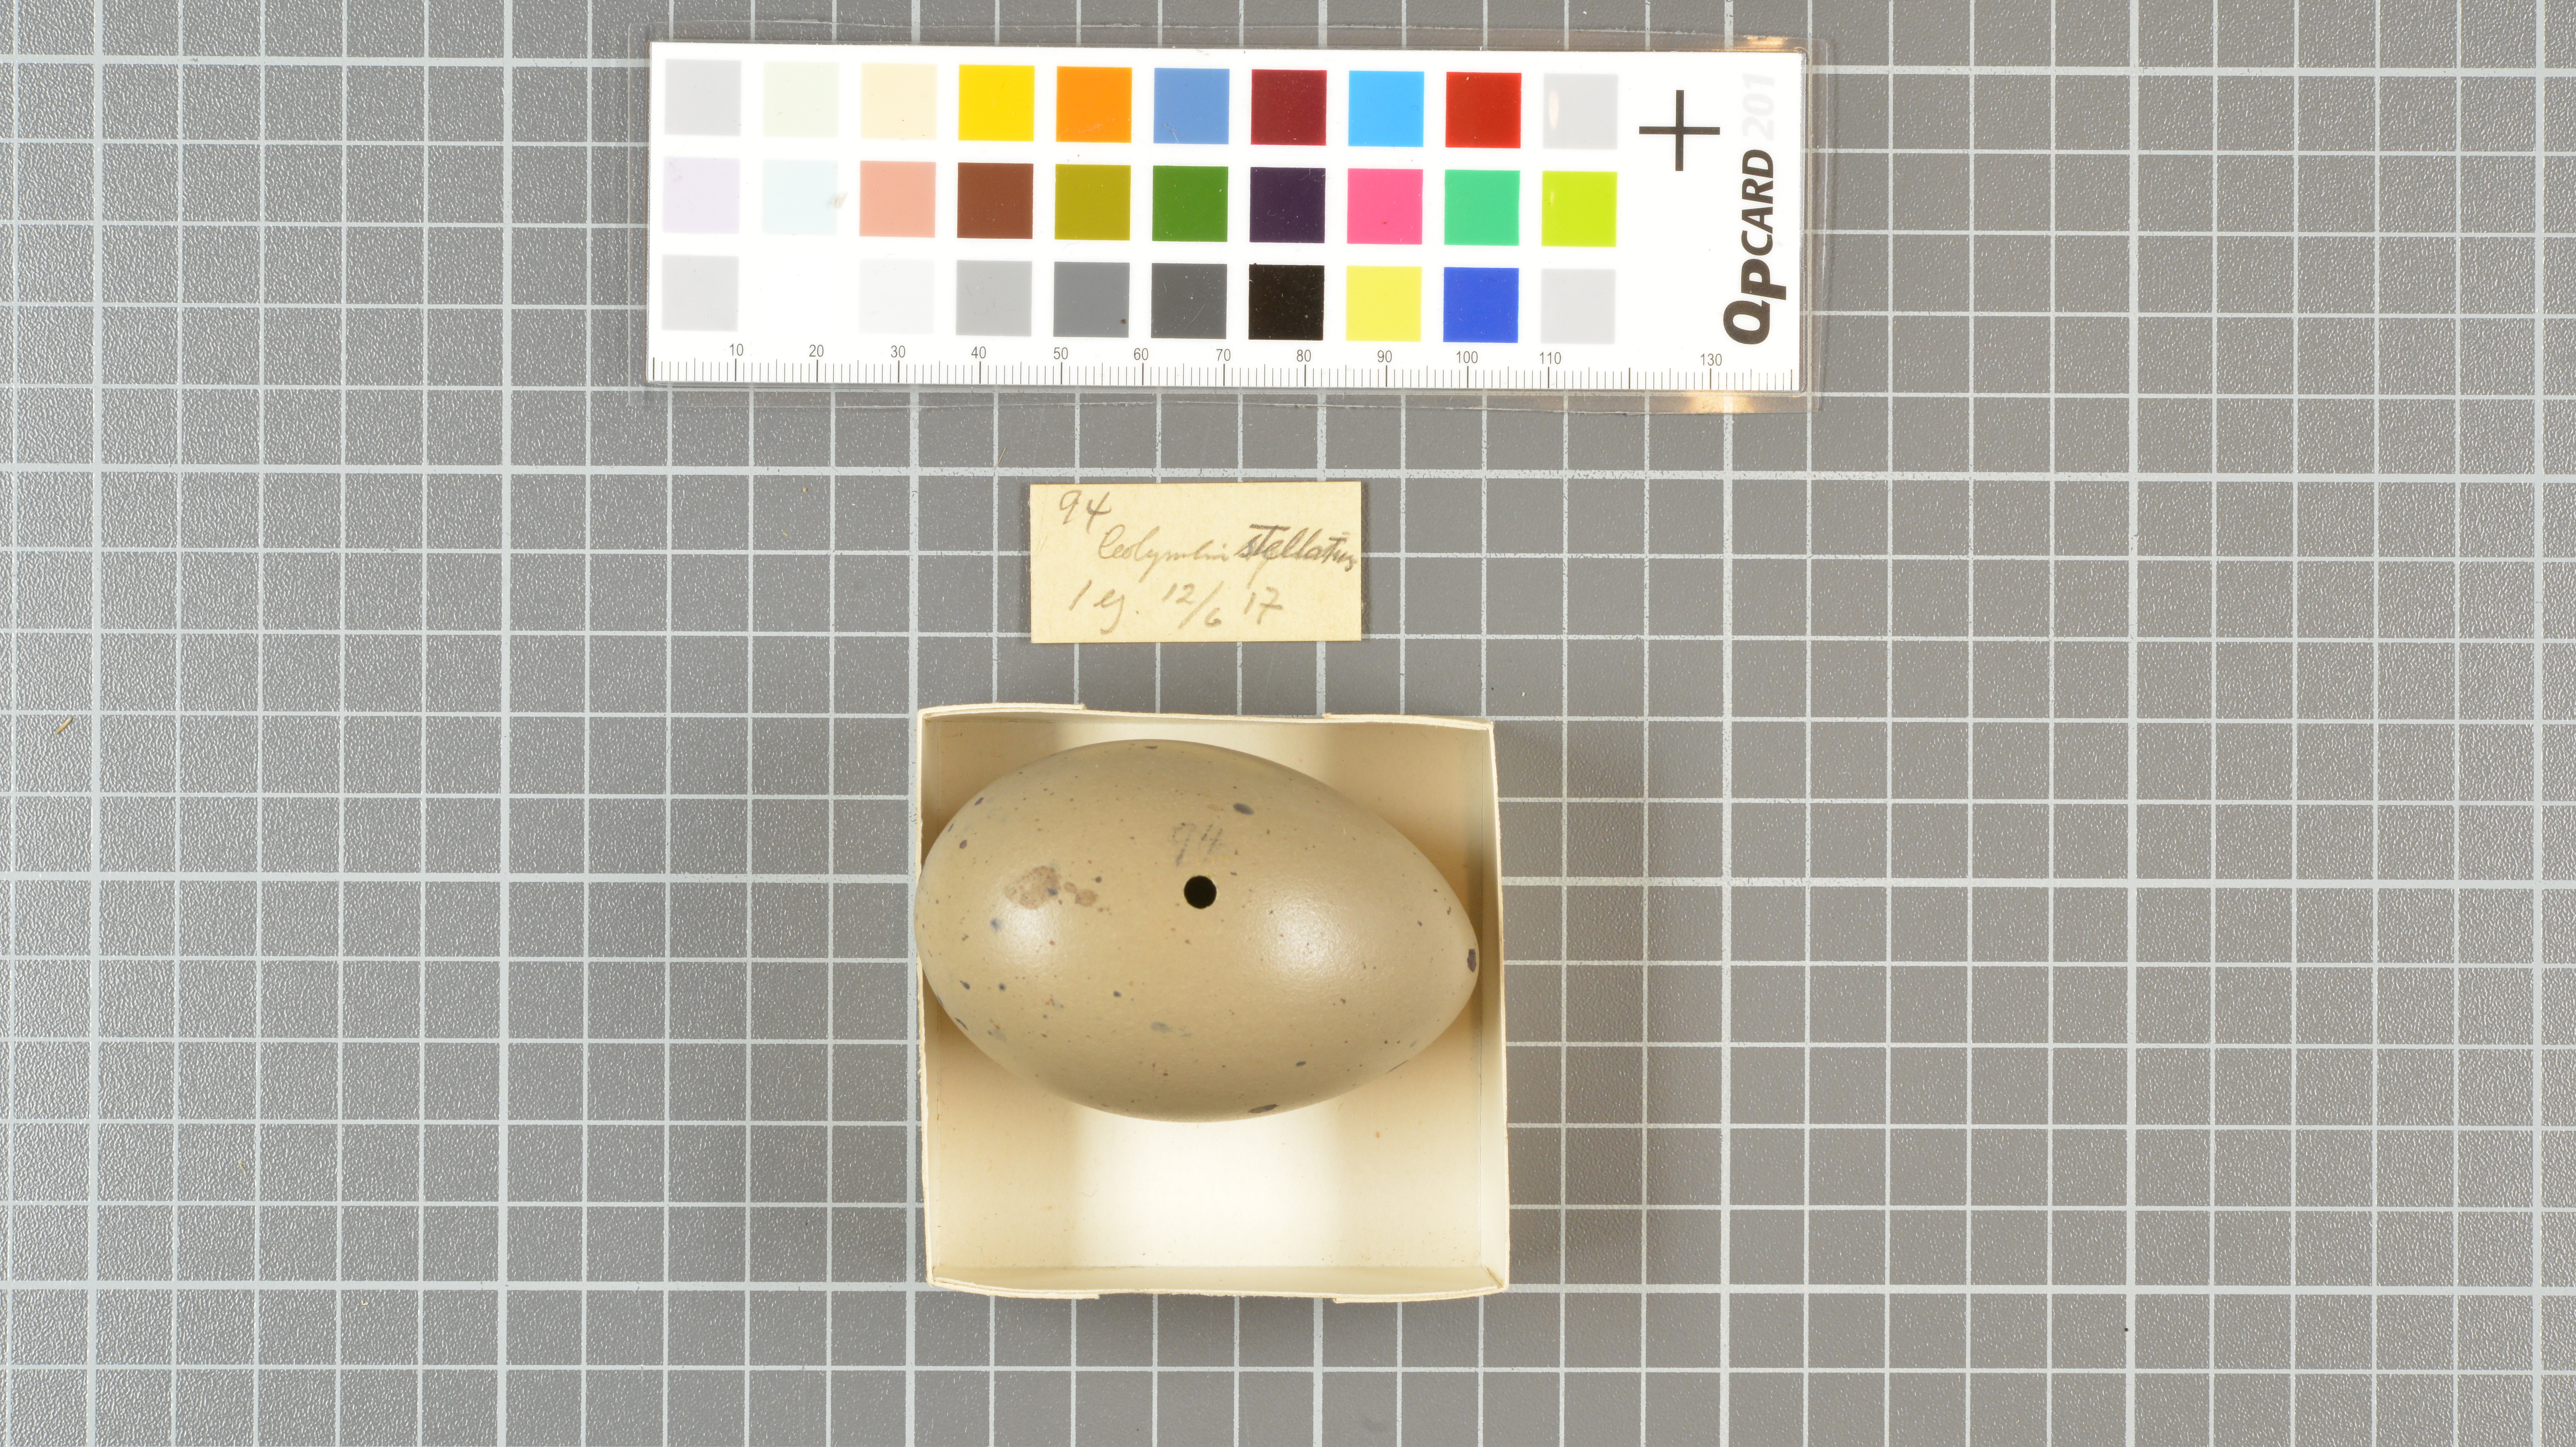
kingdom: Animalia
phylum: Chordata
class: Aves
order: Gaviiformes
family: Gaviidae
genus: Gavia
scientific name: Gavia stellata
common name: Red-throated loon
